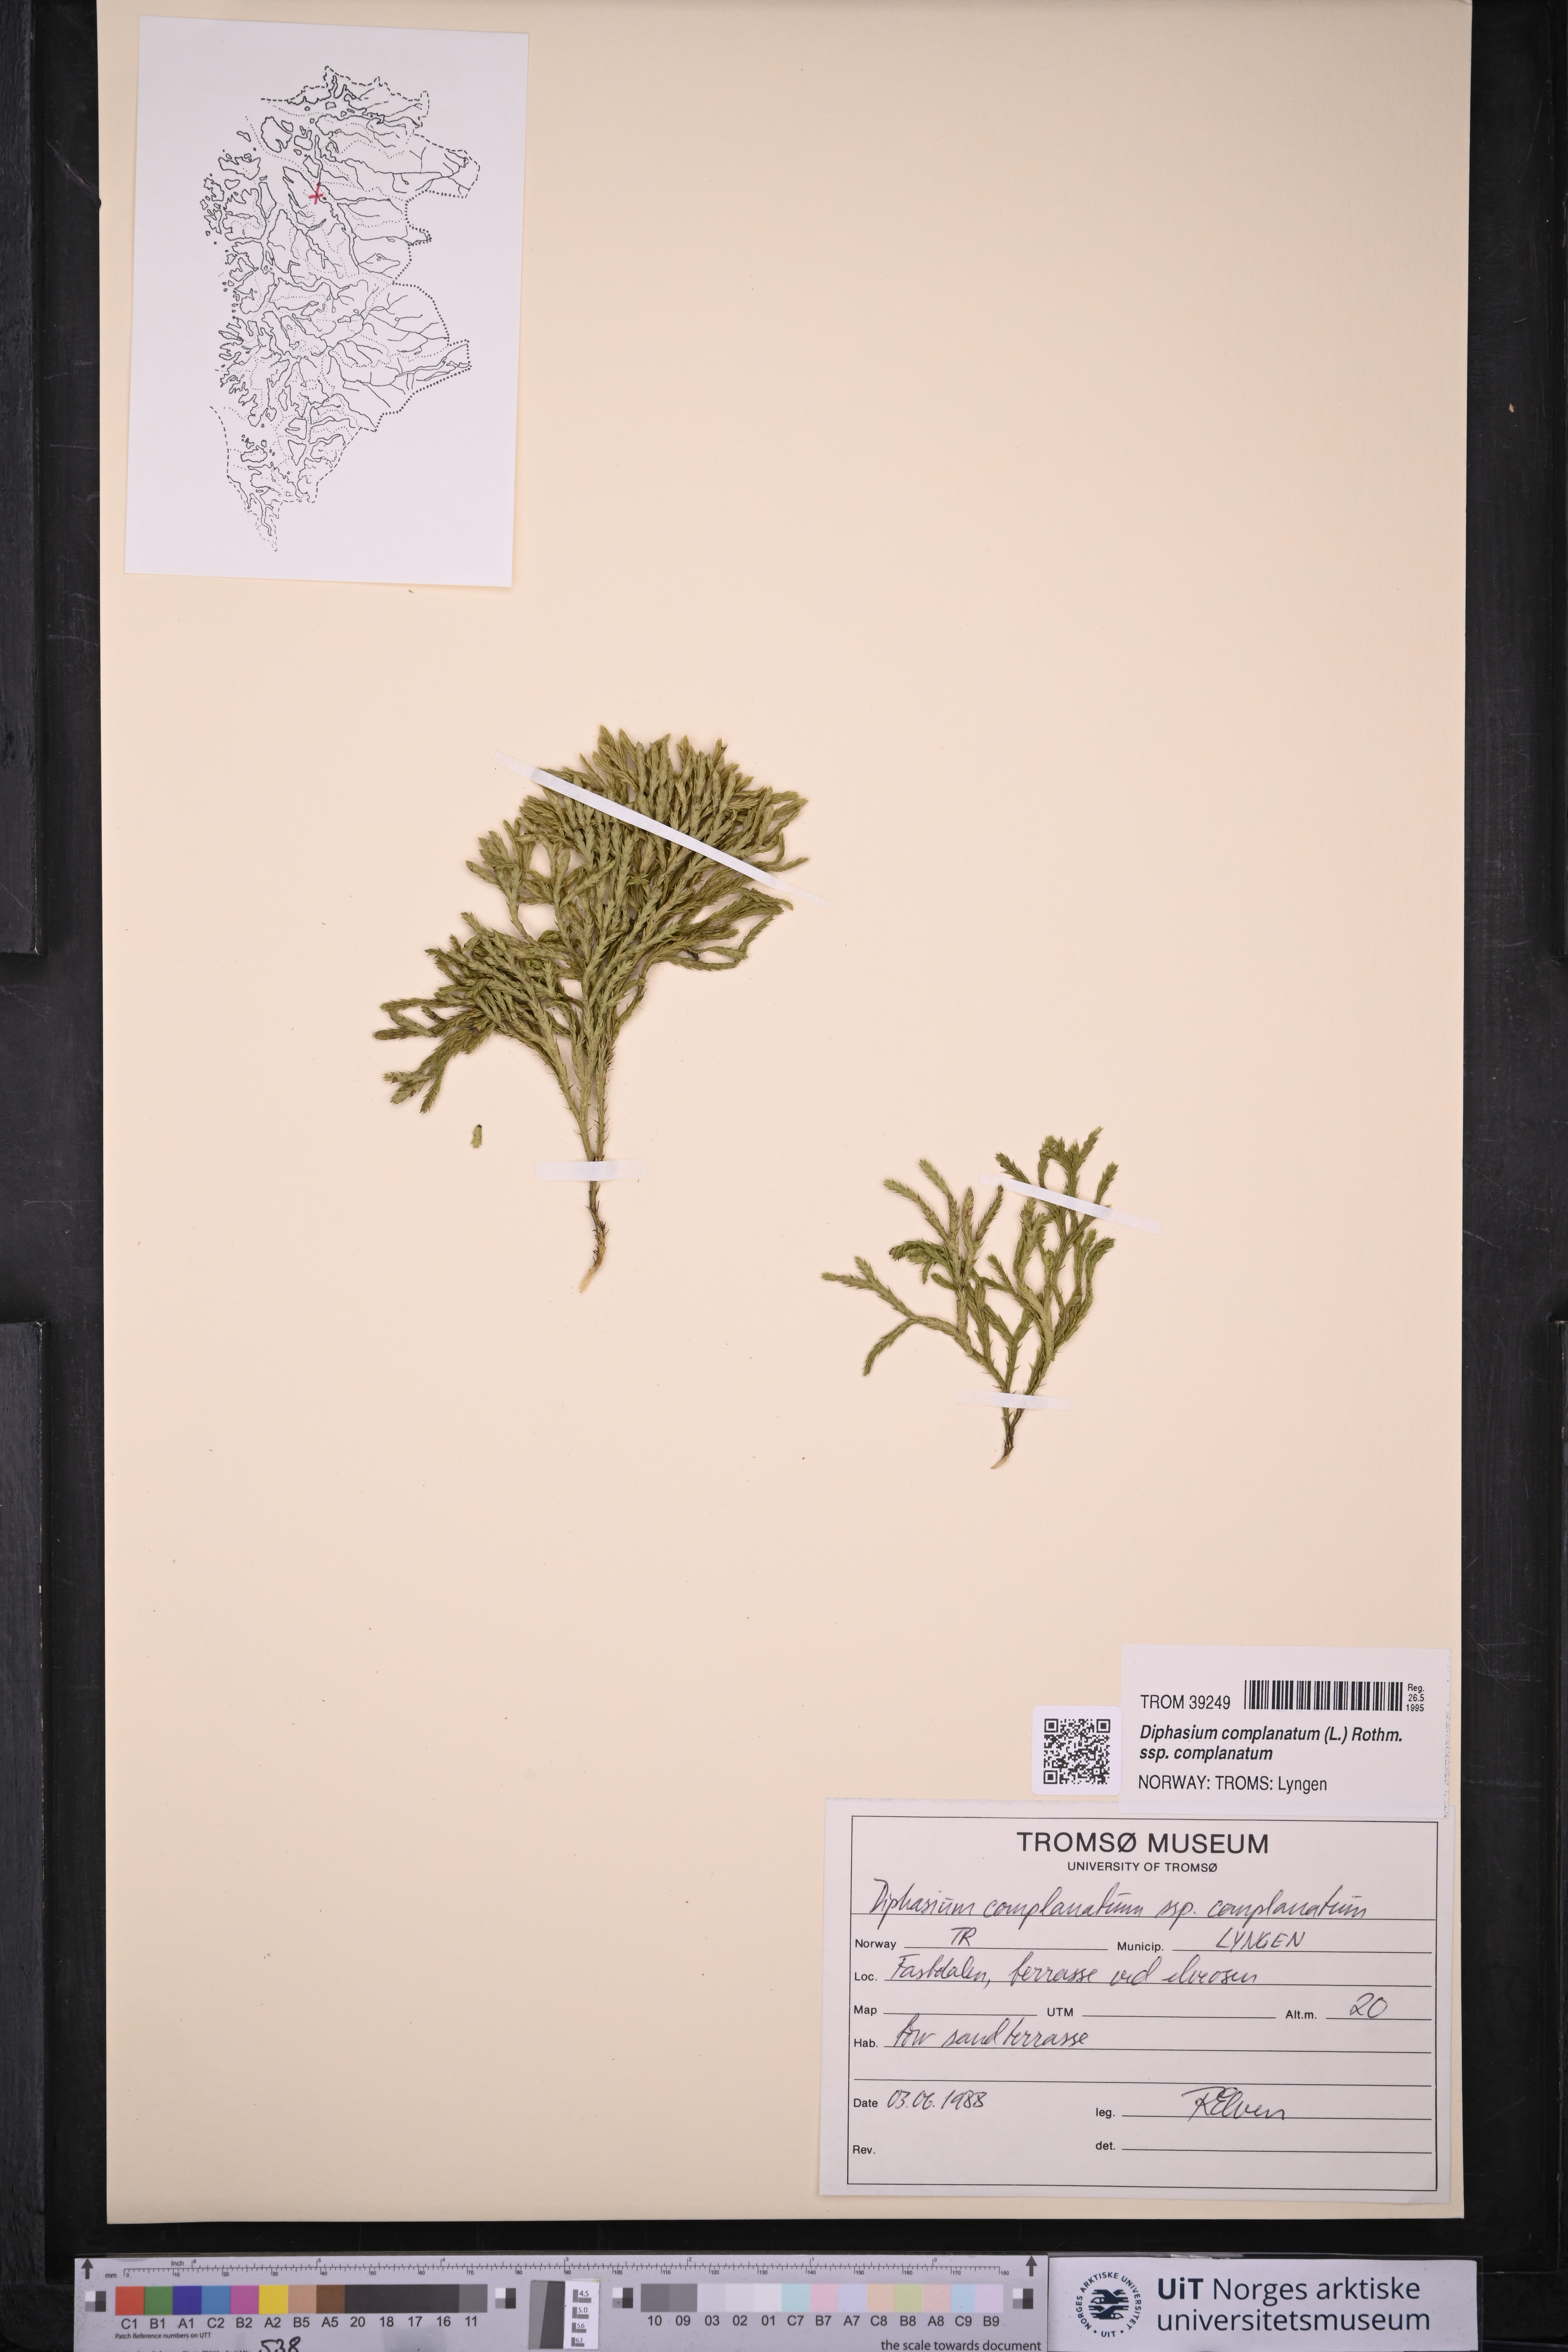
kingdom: Plantae
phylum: Tracheophyta
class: Lycopodiopsida
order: Lycopodiales
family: Lycopodiaceae
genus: Diphasiastrum
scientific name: Diphasiastrum complanatum
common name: Northern running-pine
